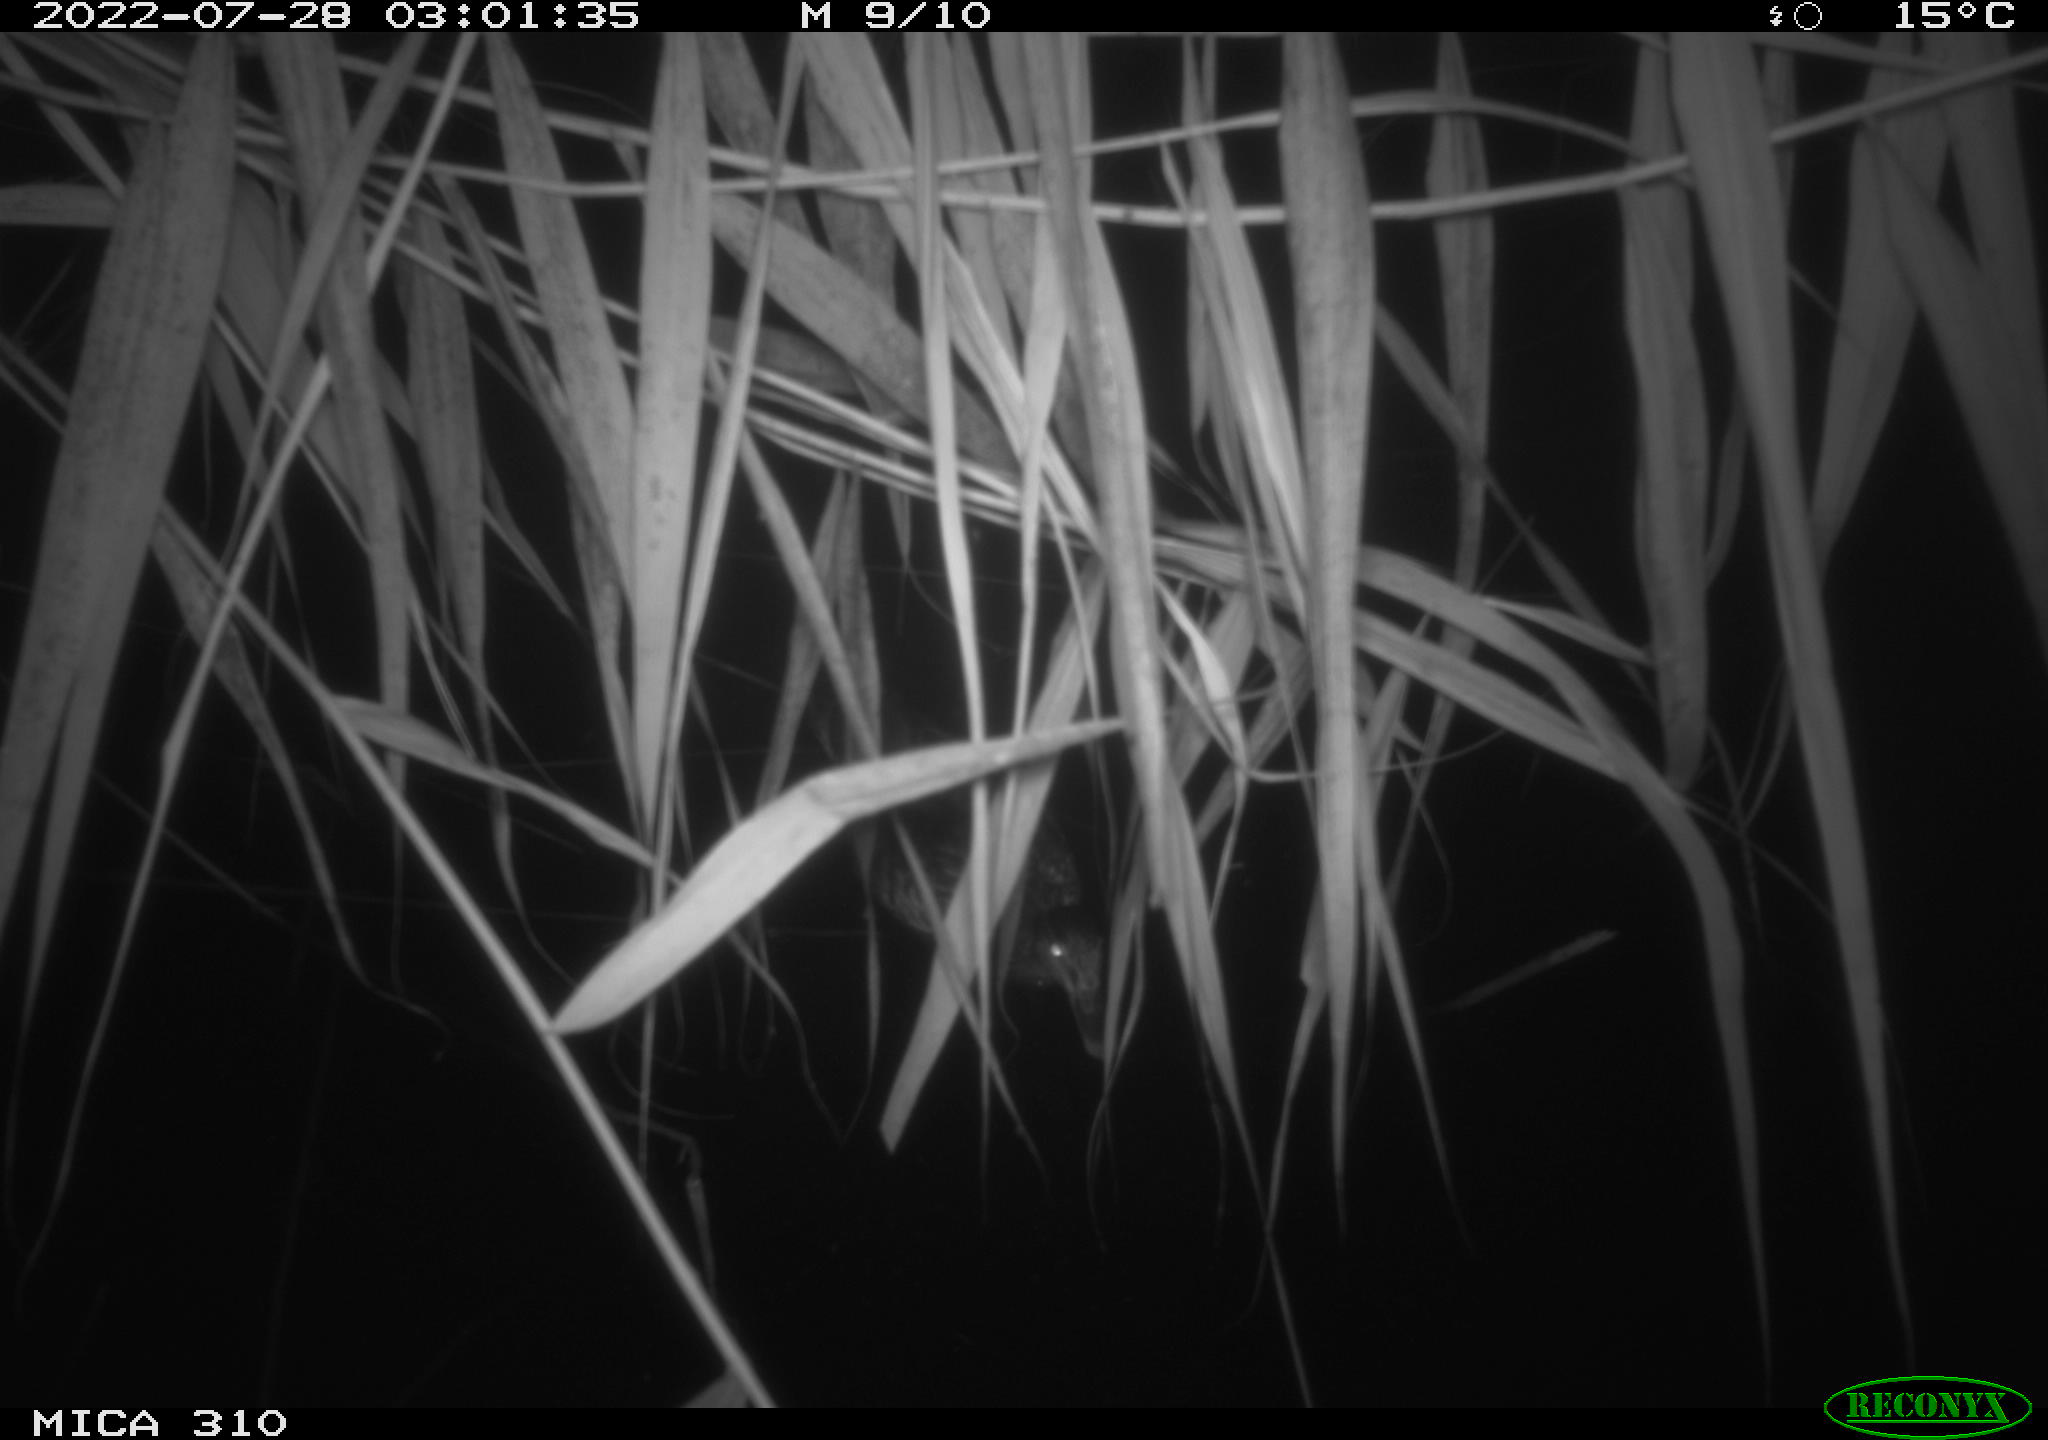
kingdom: Animalia
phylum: Chordata
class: Aves
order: Anseriformes
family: Anatidae
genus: Anas
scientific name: Anas platyrhynchos
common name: Mallard
